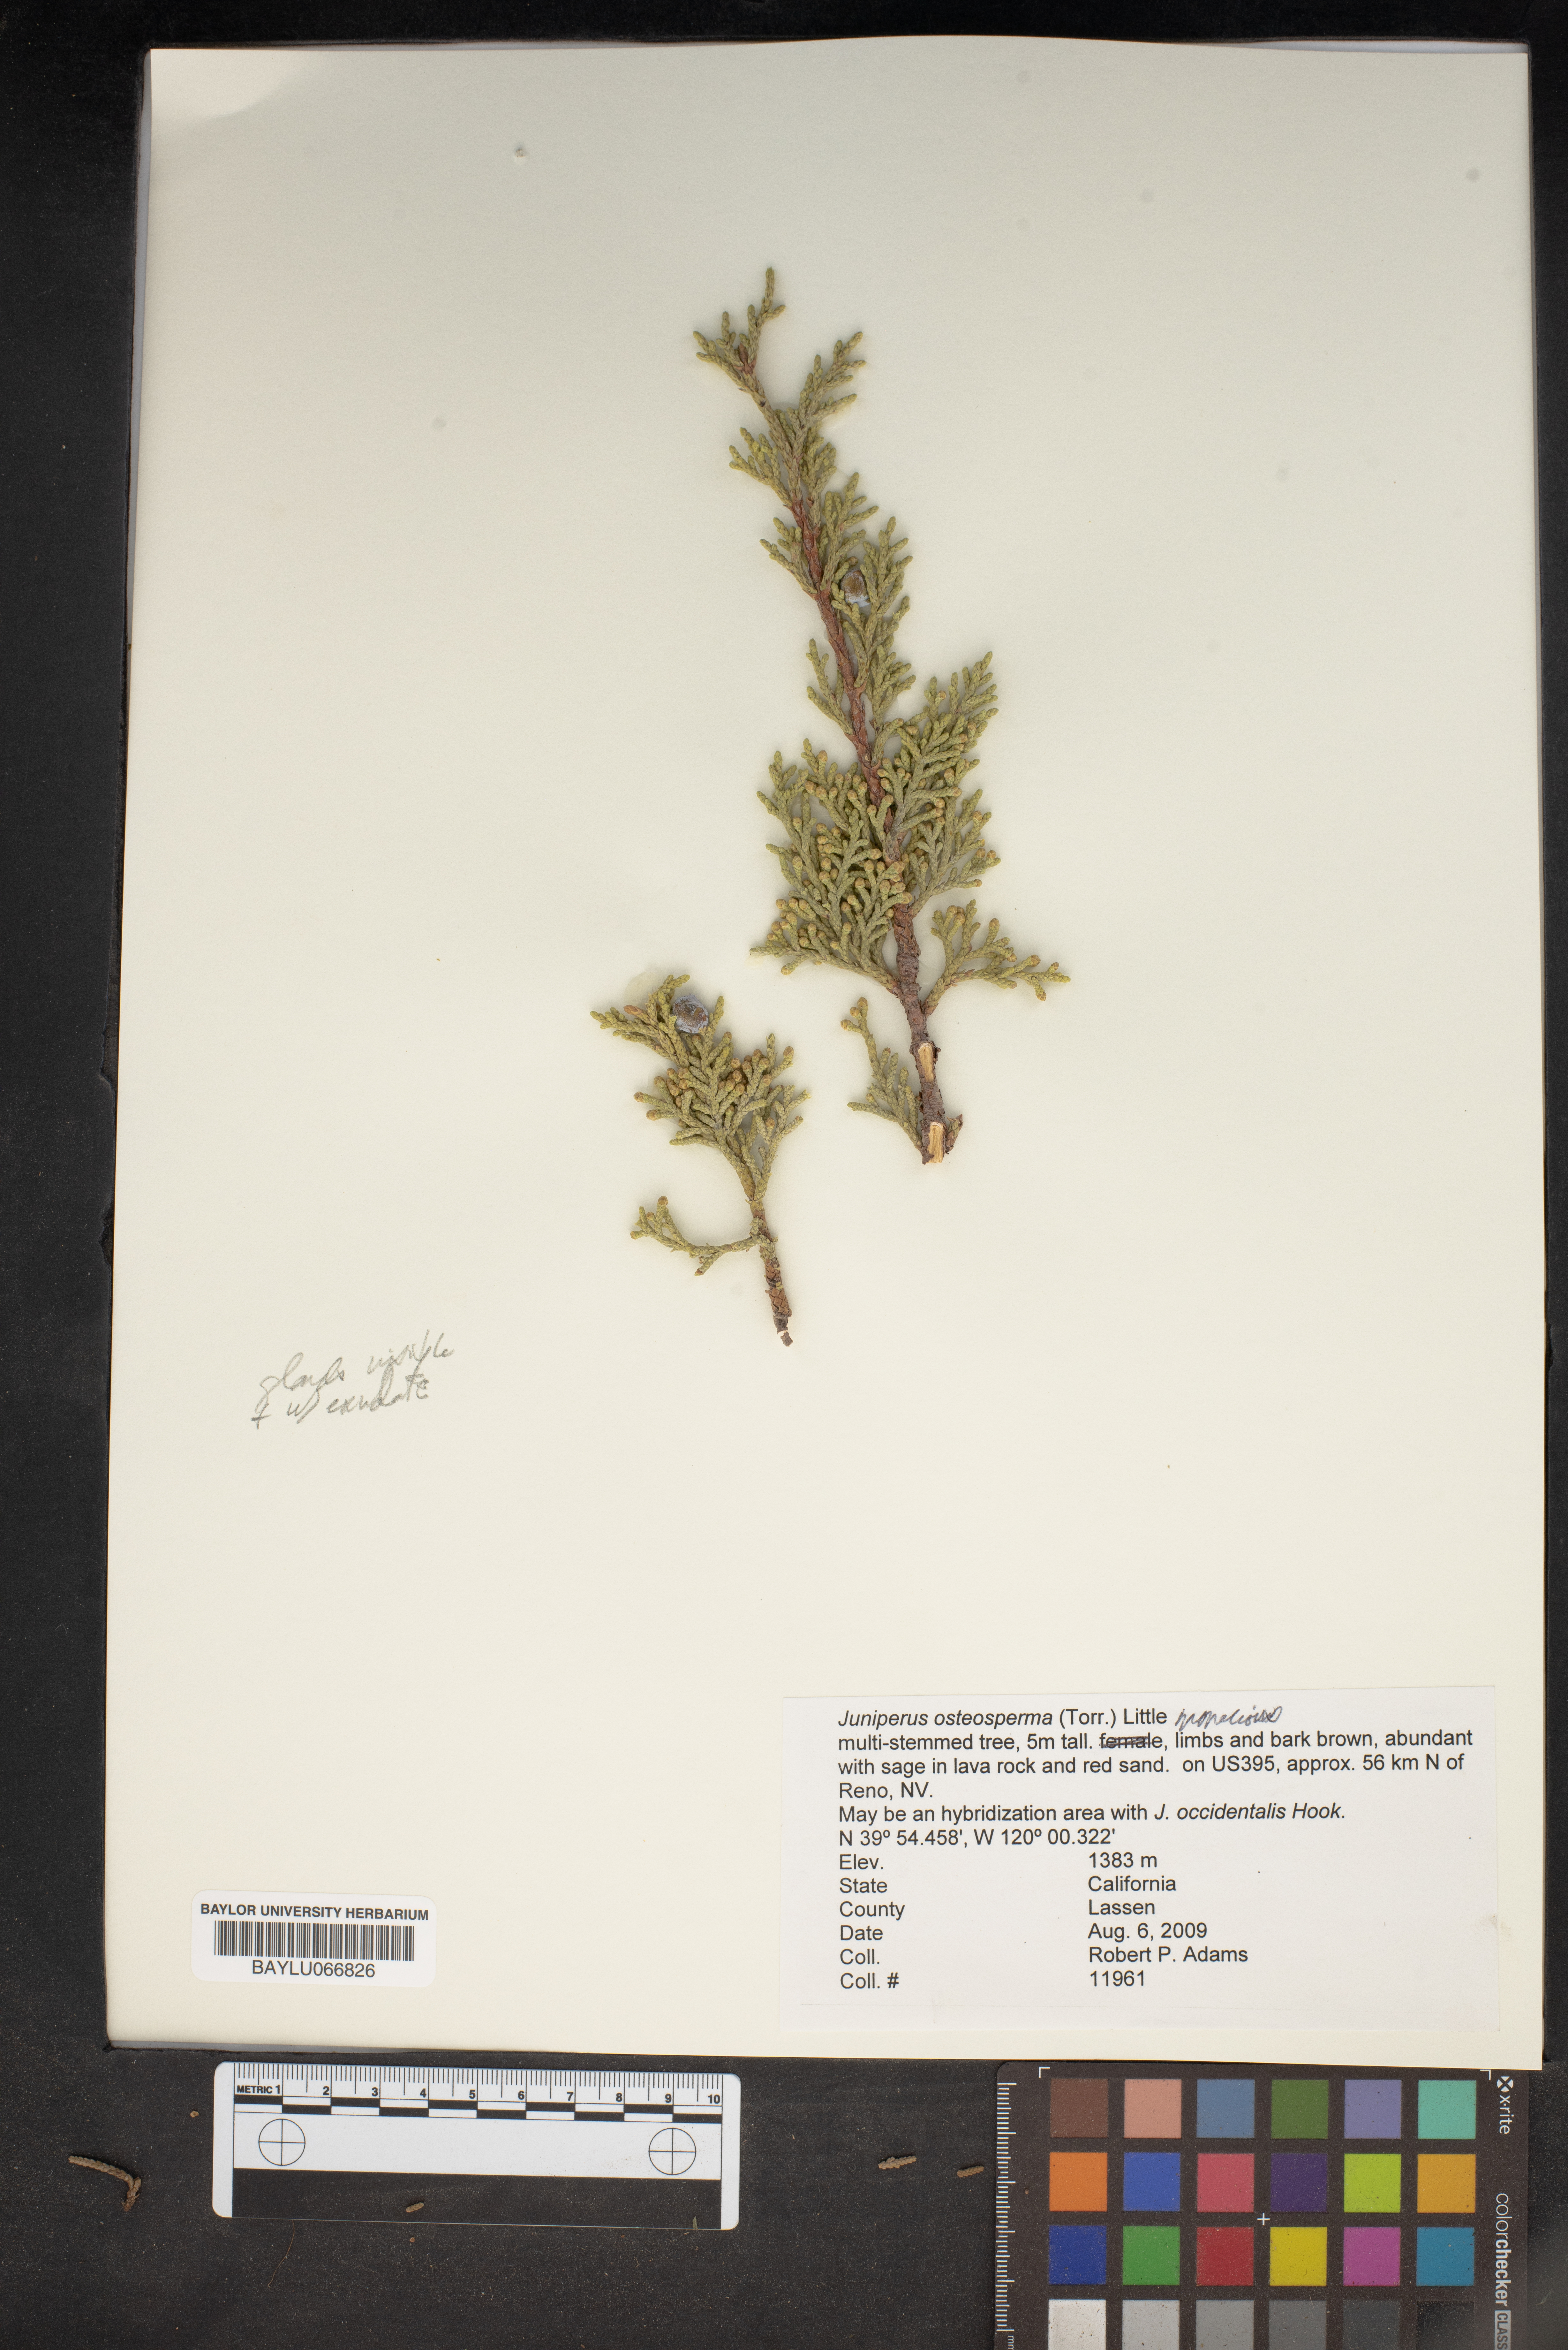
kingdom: Plantae
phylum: Tracheophyta
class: Pinopsida
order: Pinales
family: Cupressaceae
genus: Juniperus
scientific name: Juniperus osteosperma
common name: Utah juniper
